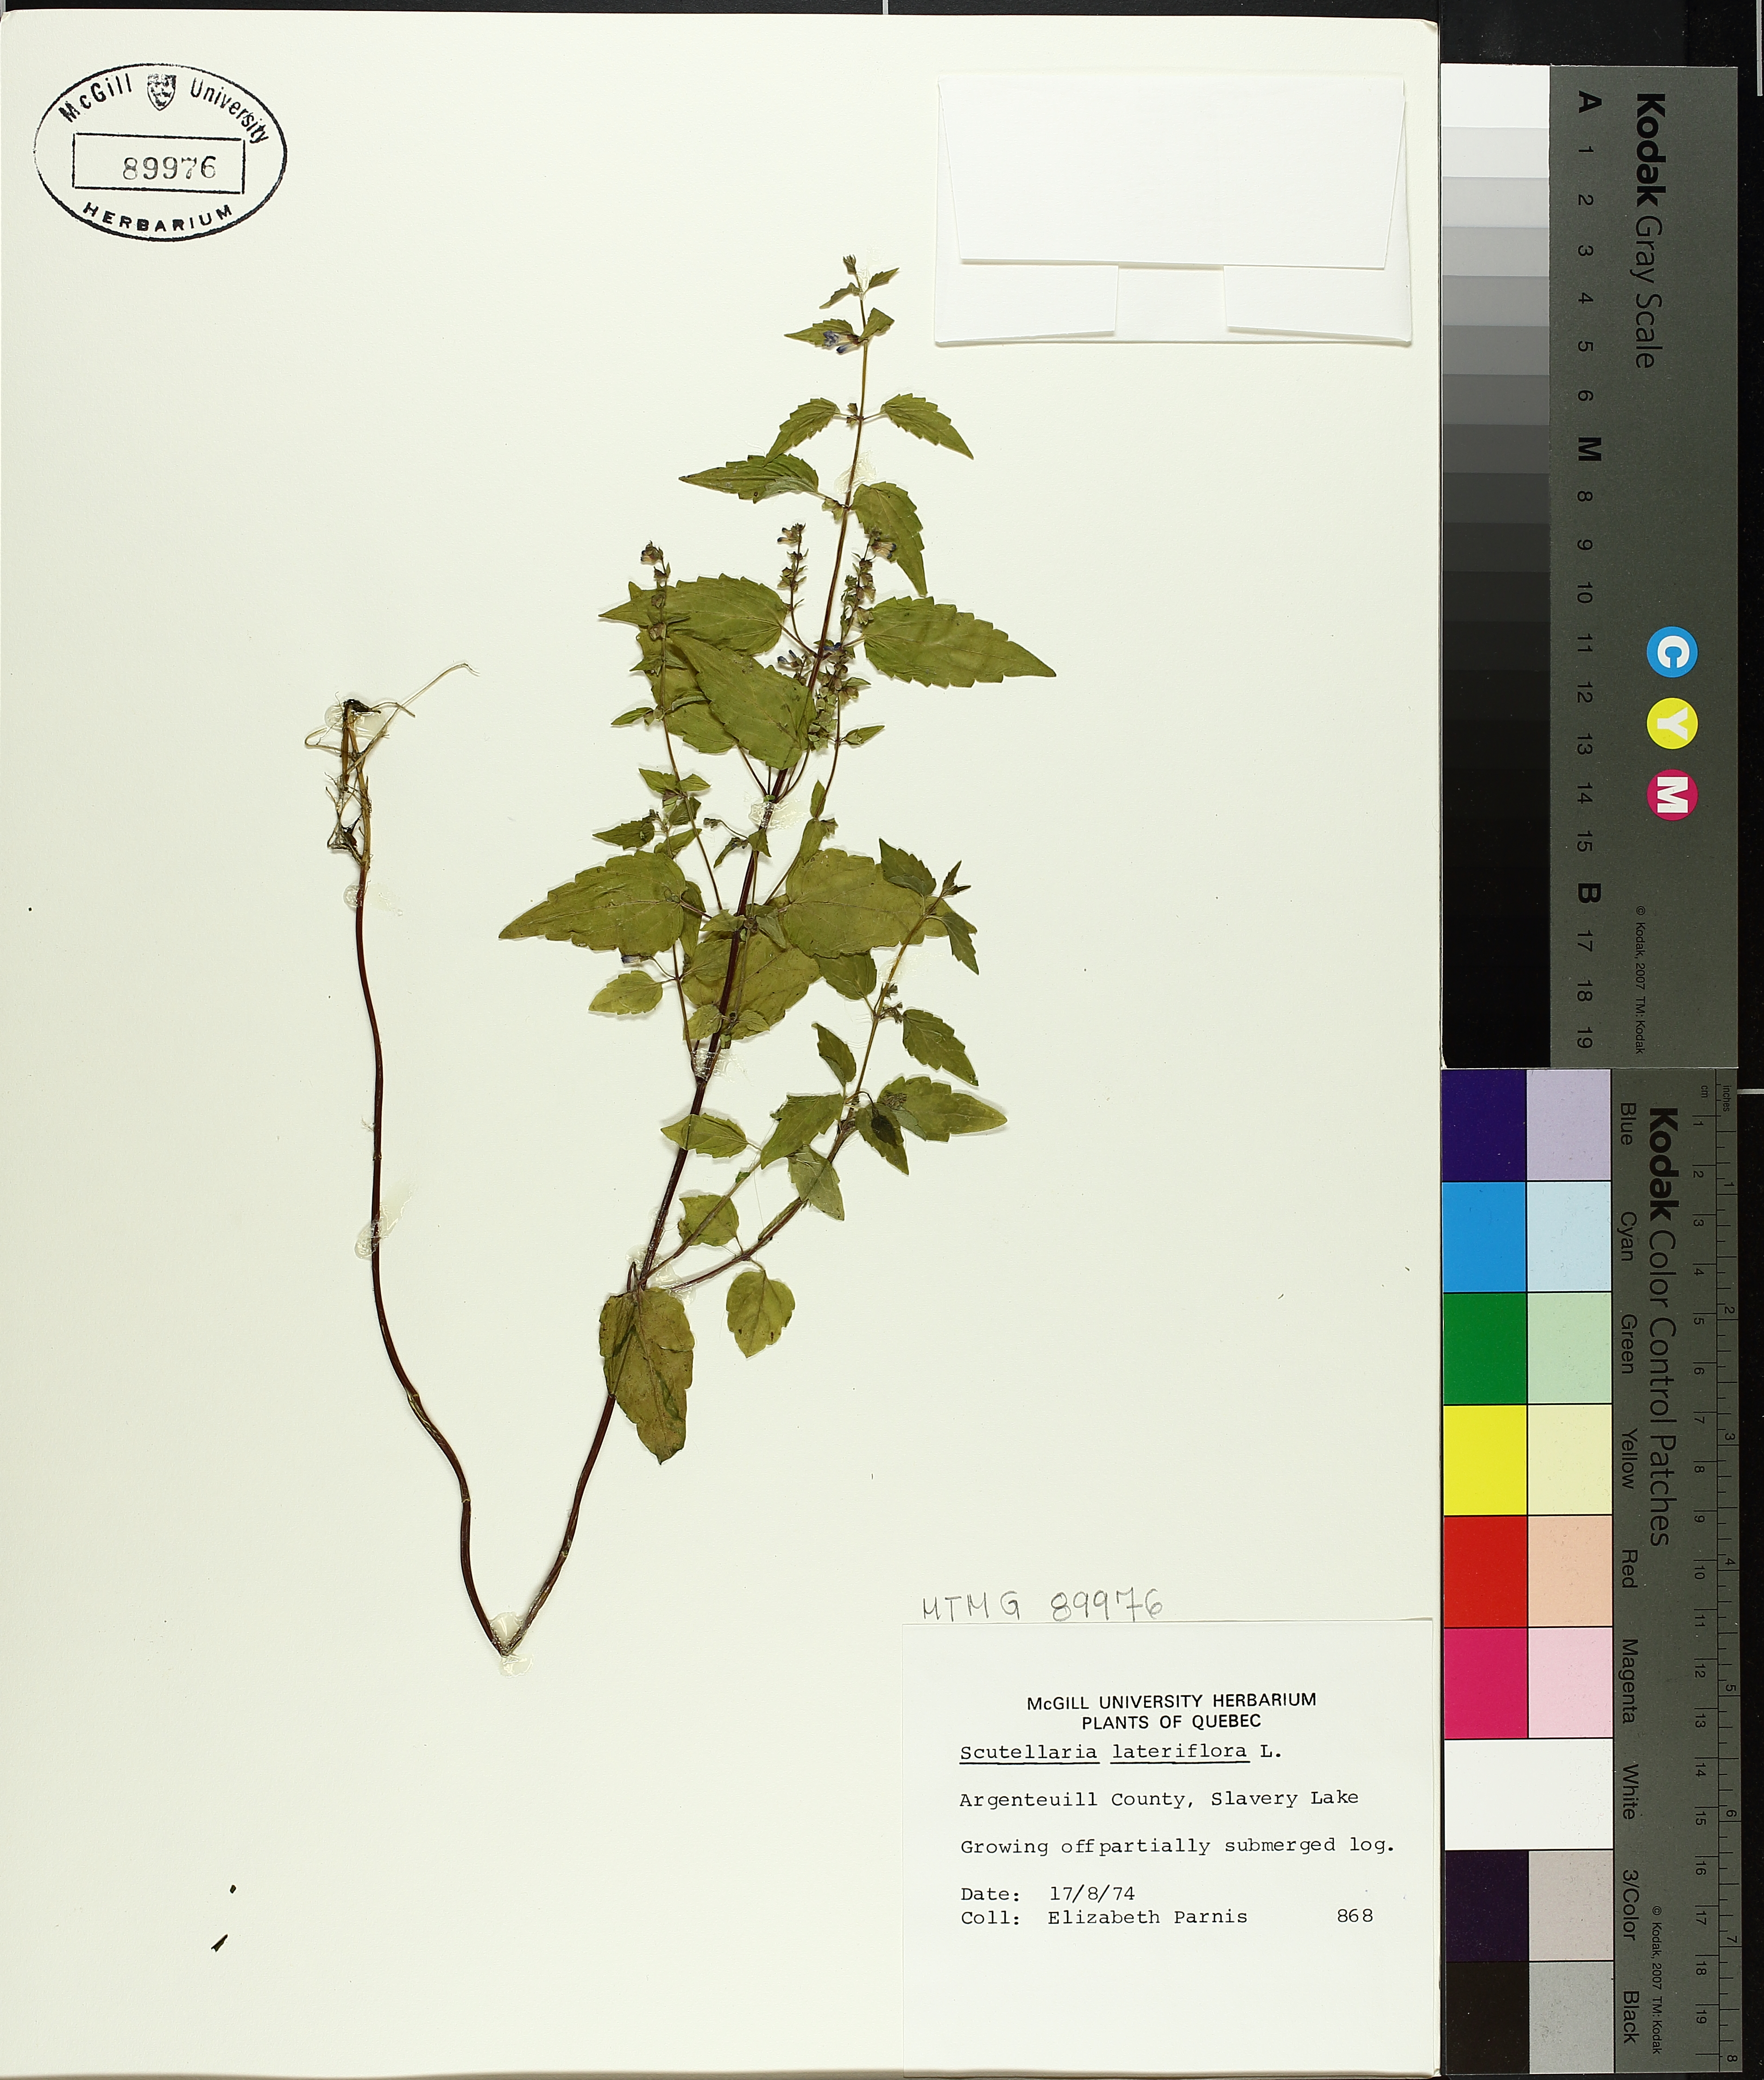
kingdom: Plantae
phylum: Tracheophyta
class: Magnoliopsida
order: Lamiales
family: Lamiaceae
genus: Scutellaria
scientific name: Scutellaria lateriflora
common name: Blue skullcap
